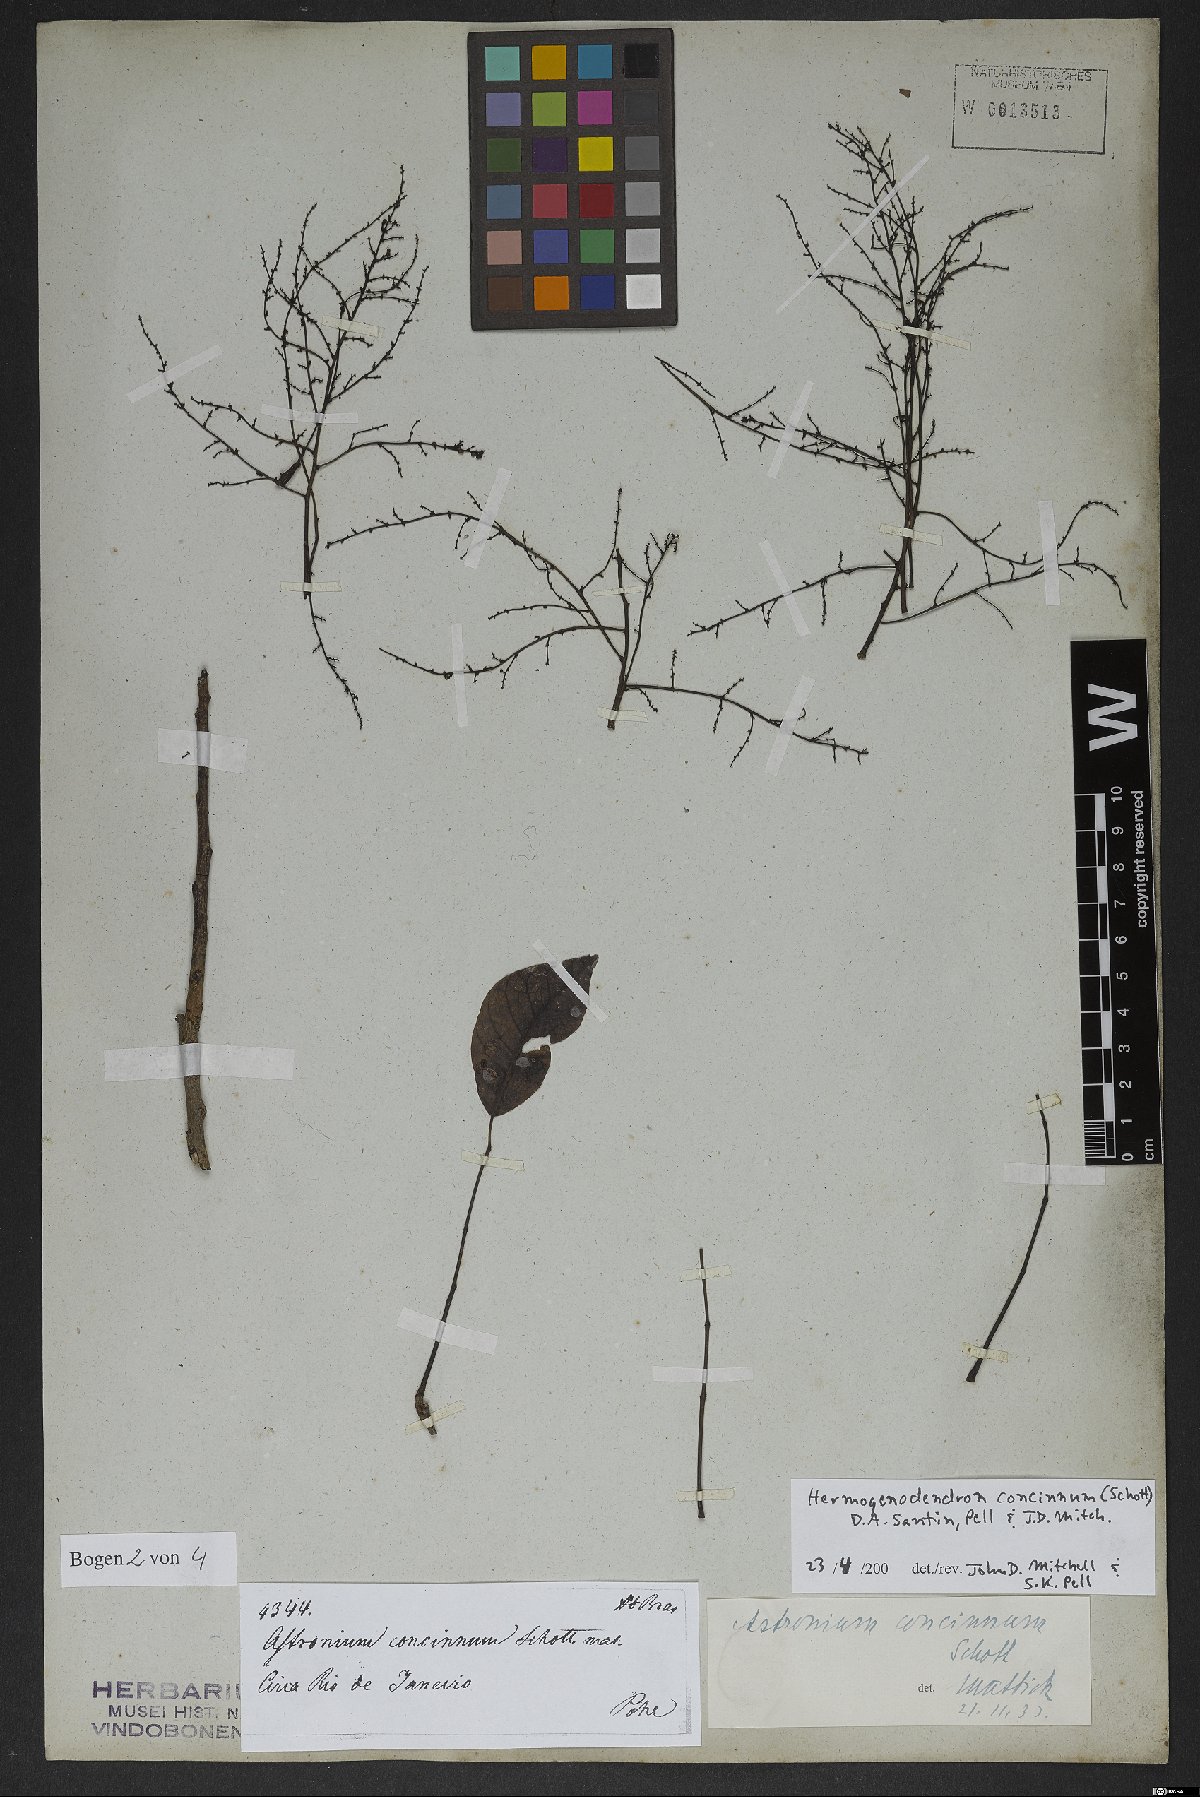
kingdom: Plantae
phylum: Tracheophyta
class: Magnoliopsida
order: Sapindales
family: Anacardiaceae
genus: Myracrodruon
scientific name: Myracrodruon urundeuva
